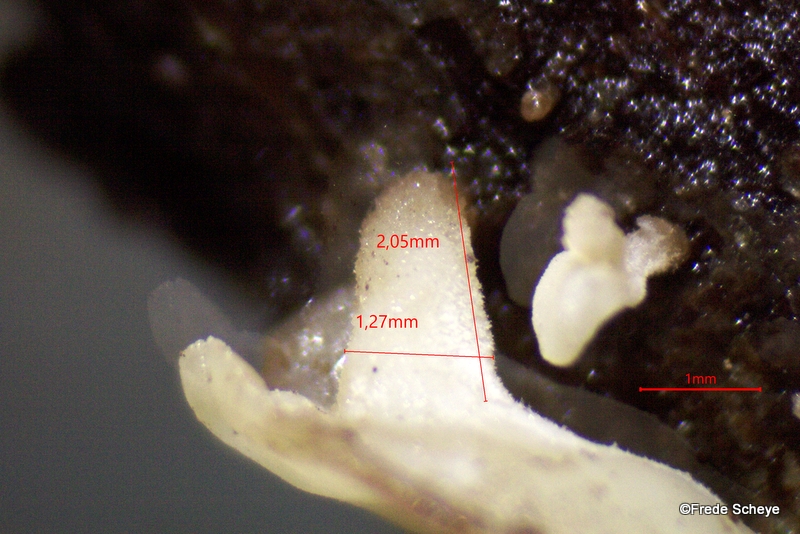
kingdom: Fungi
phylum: Ascomycota
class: Leotiomycetes
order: Helotiales
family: Helotiaceae
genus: Hymenoscyphus
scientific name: Hymenoscyphus calyculus
